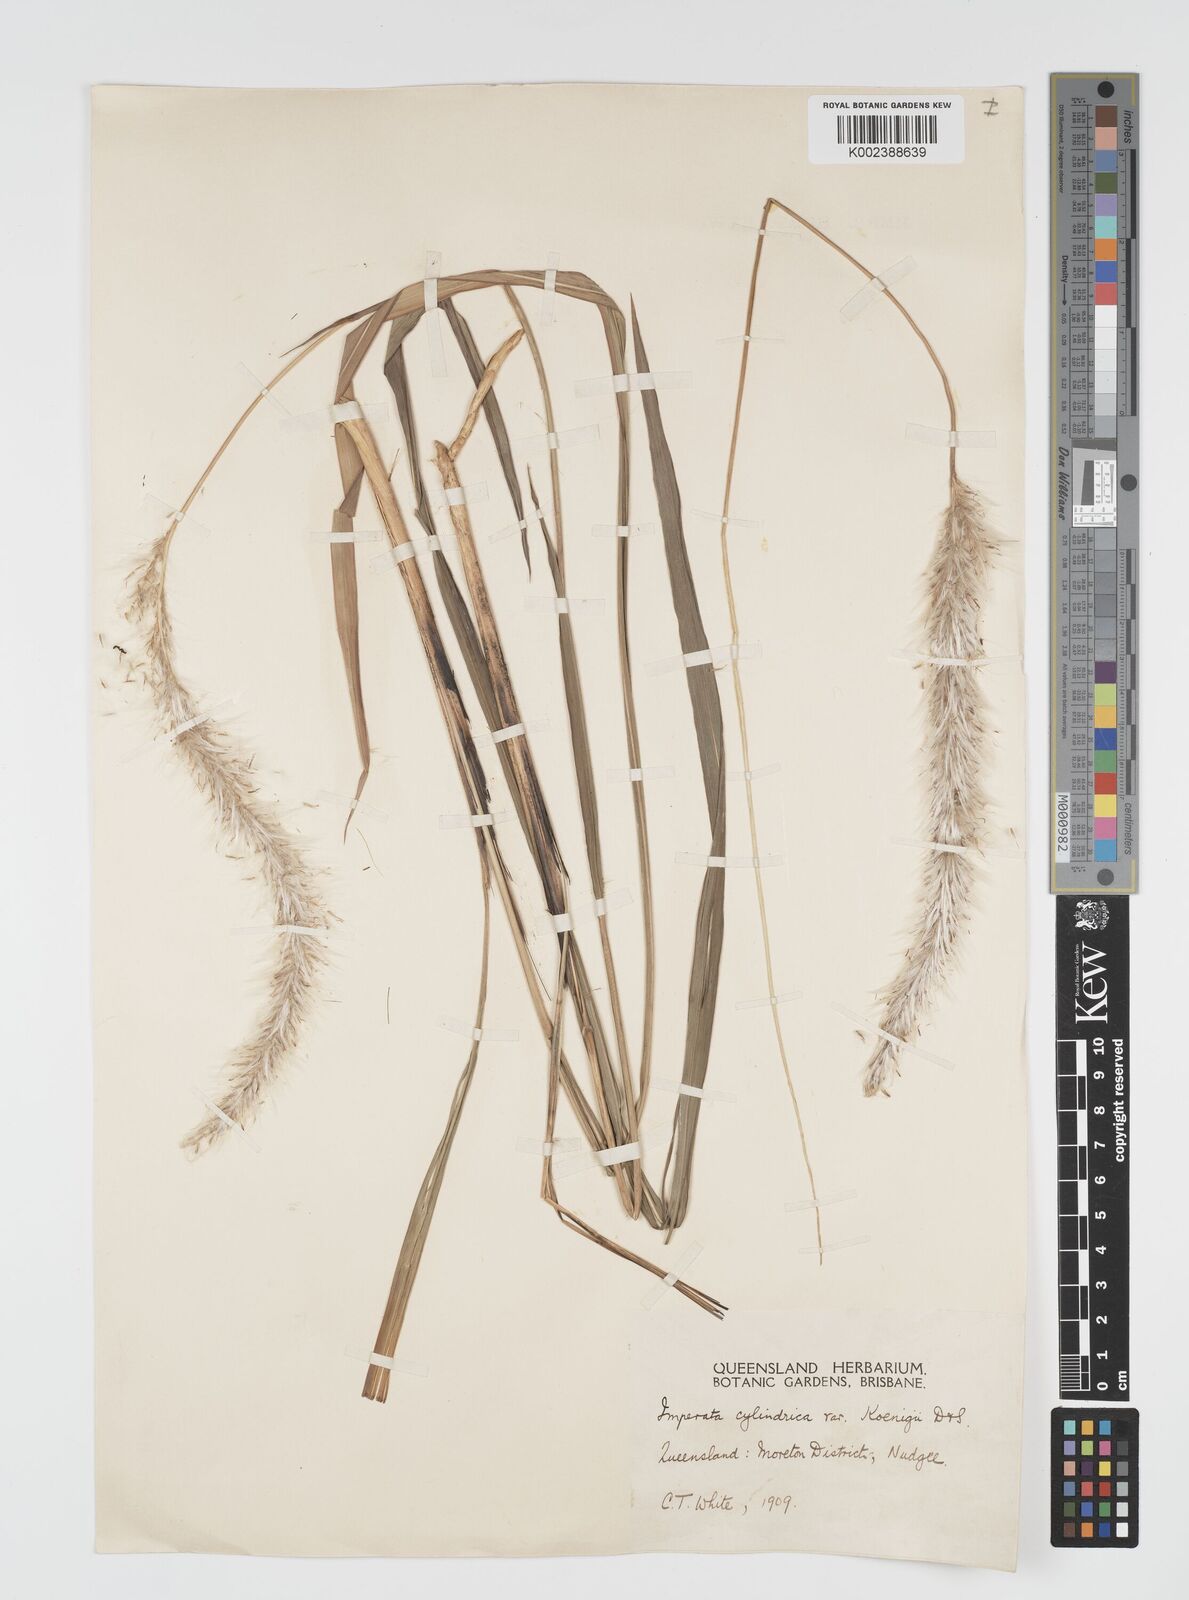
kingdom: Plantae
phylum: Tracheophyta
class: Liliopsida
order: Poales
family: Poaceae
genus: Imperata
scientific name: Imperata cylindrica
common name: Cogongrass
